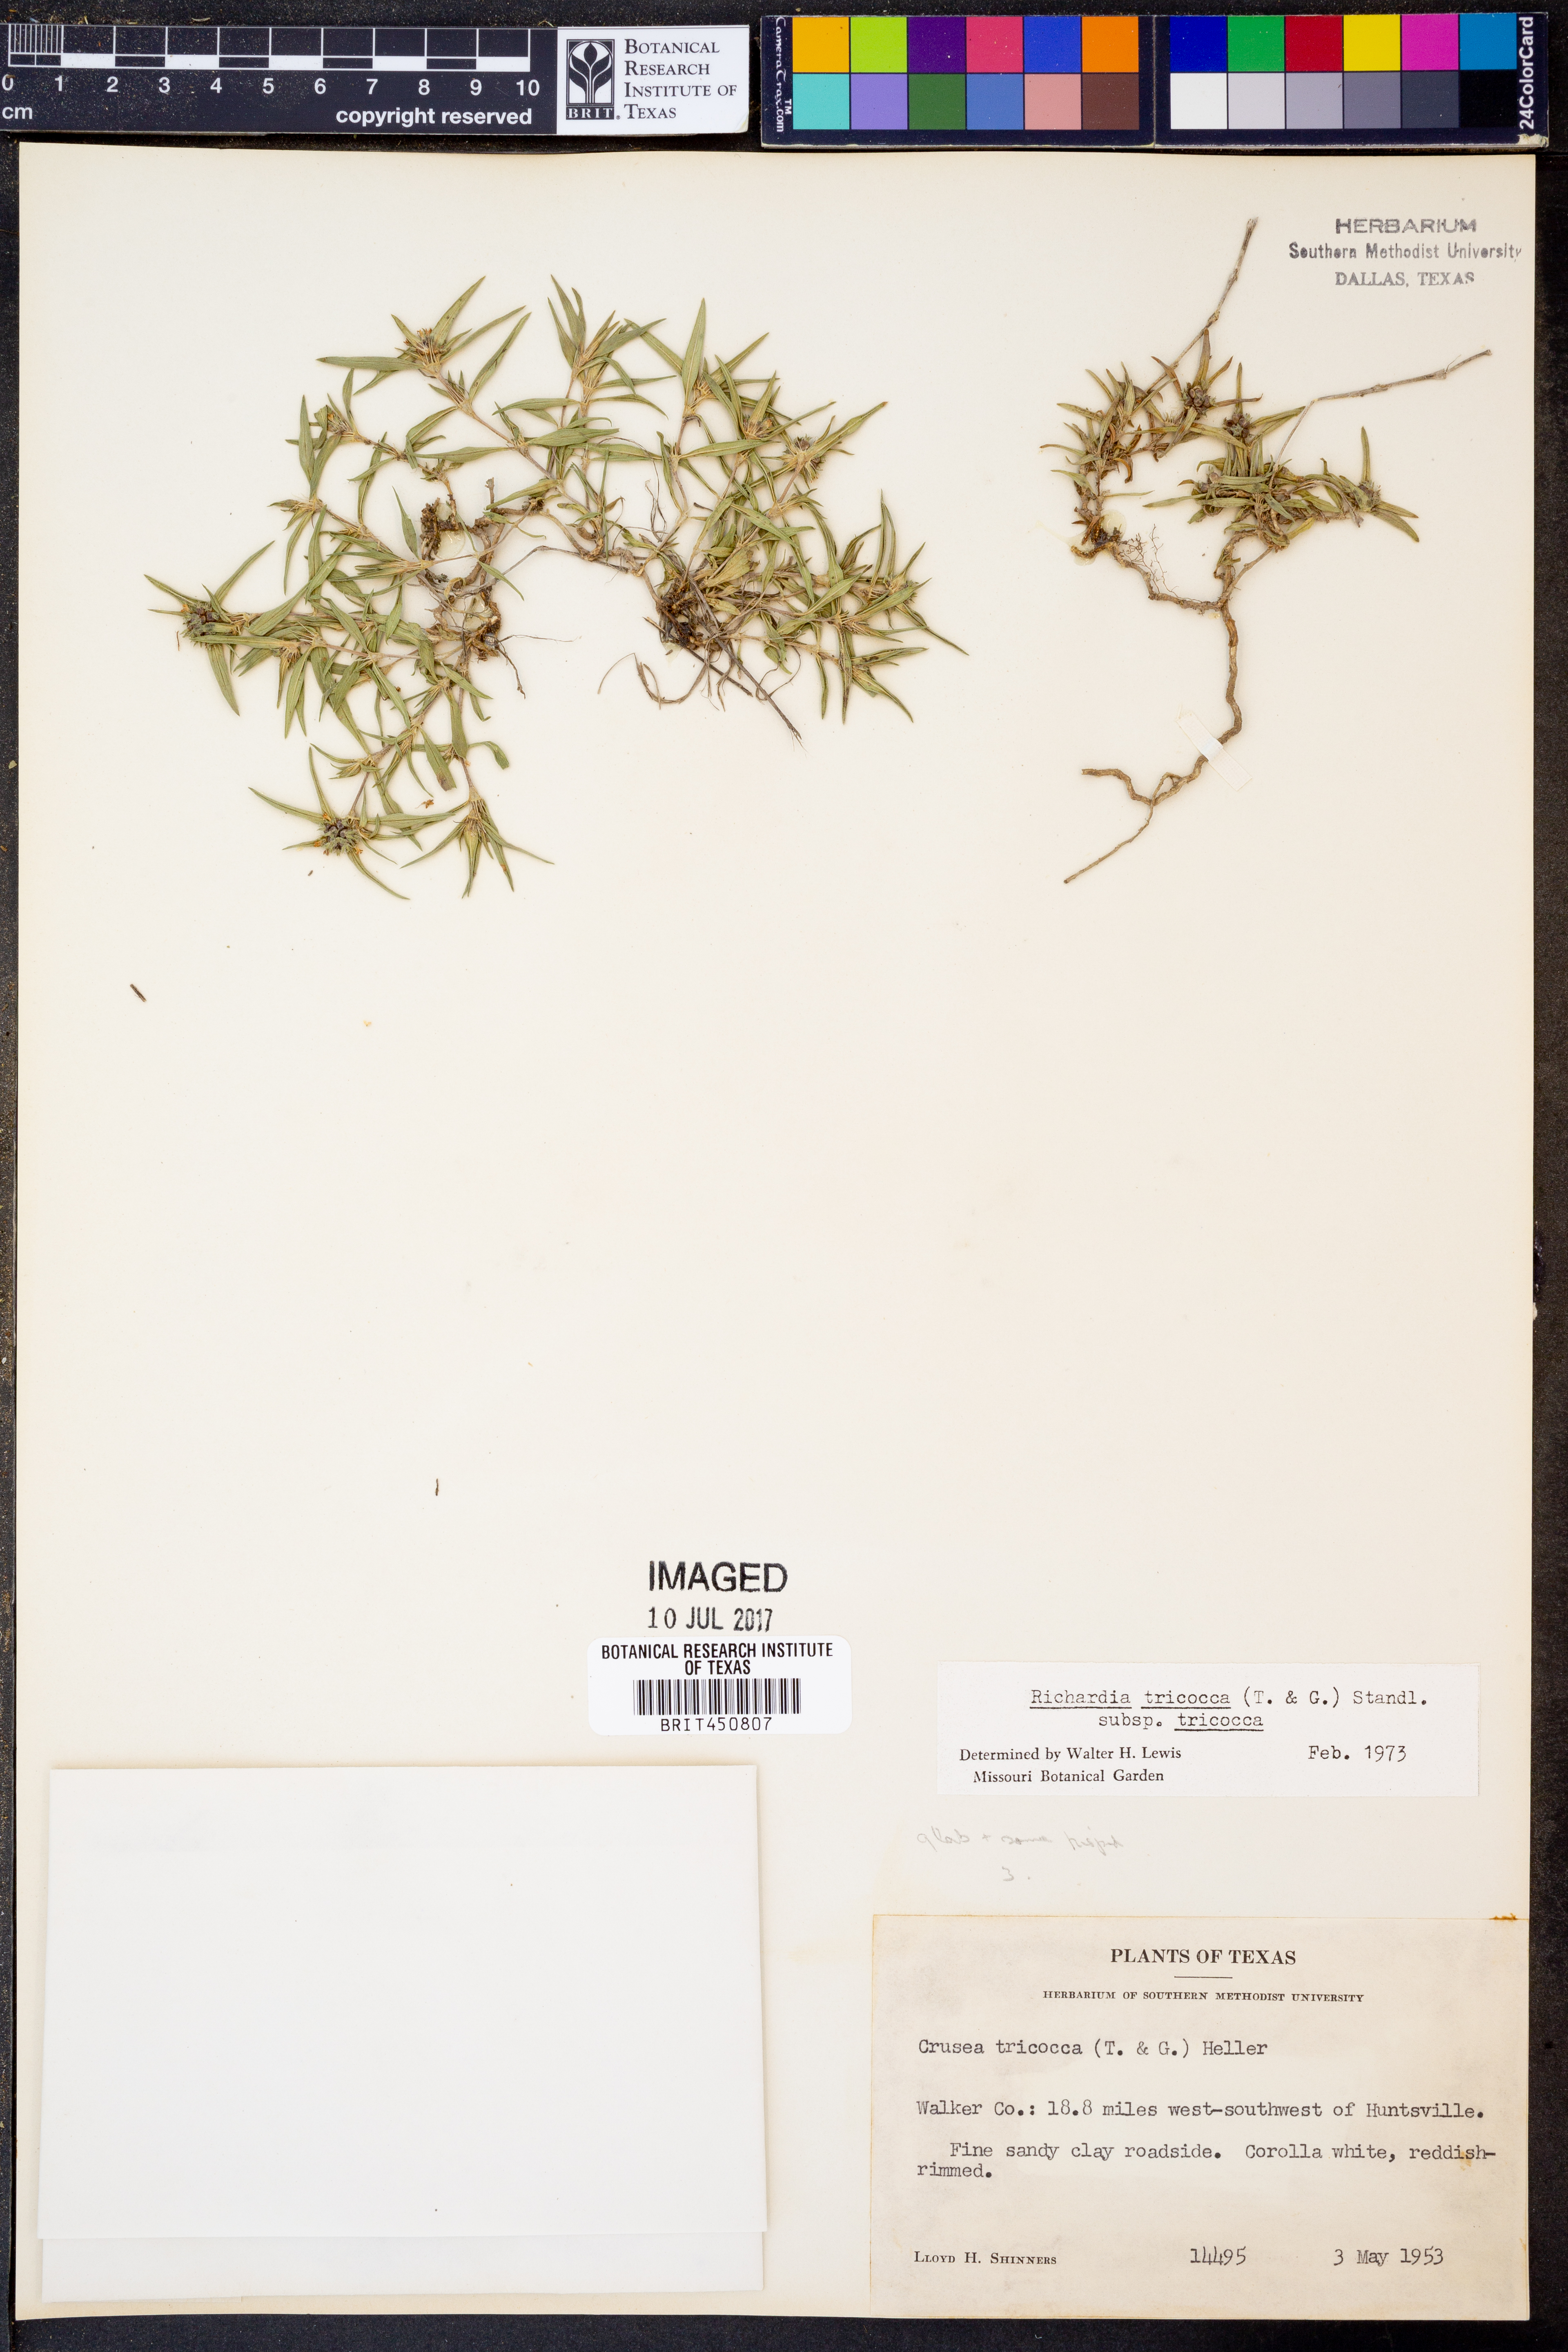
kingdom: Plantae
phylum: Tracheophyta
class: Magnoliopsida
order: Gentianales
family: Rubiaceae
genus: Richardia
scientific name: Richardia tricocca
